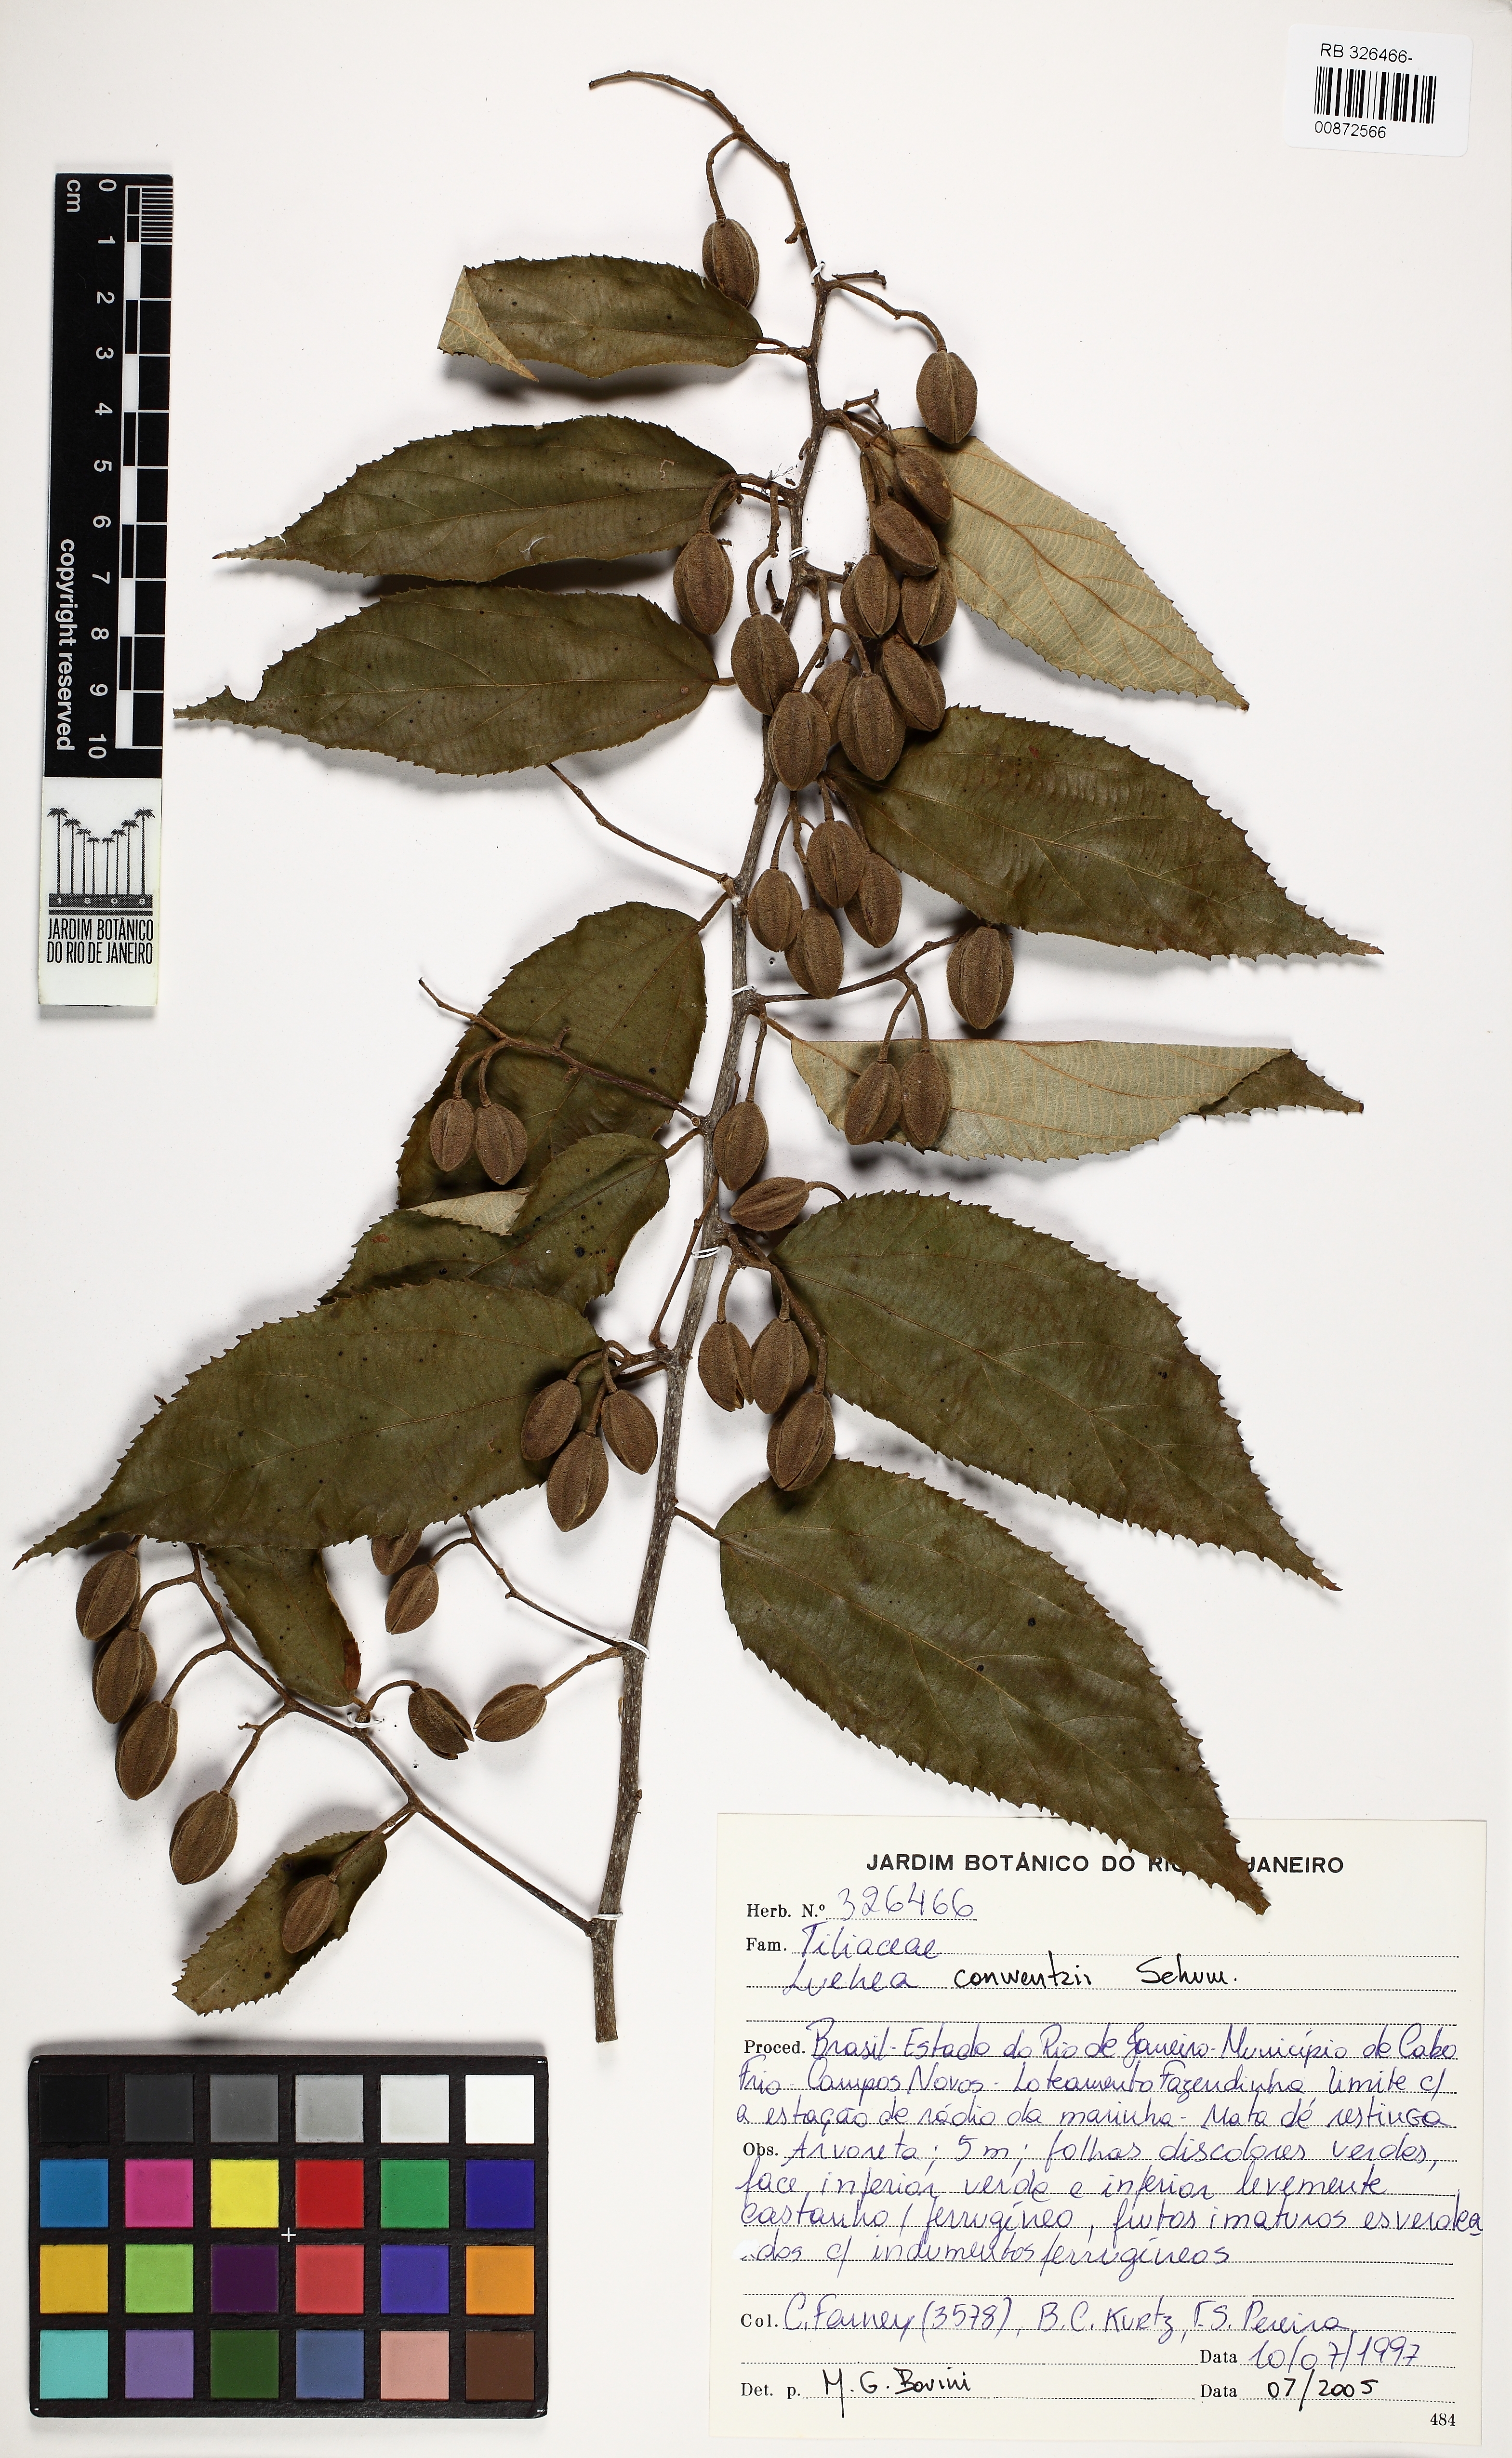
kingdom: Plantae
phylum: Tracheophyta
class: Magnoliopsida
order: Malvales
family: Malvaceae
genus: Luehea
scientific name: Luehea conwentzii
